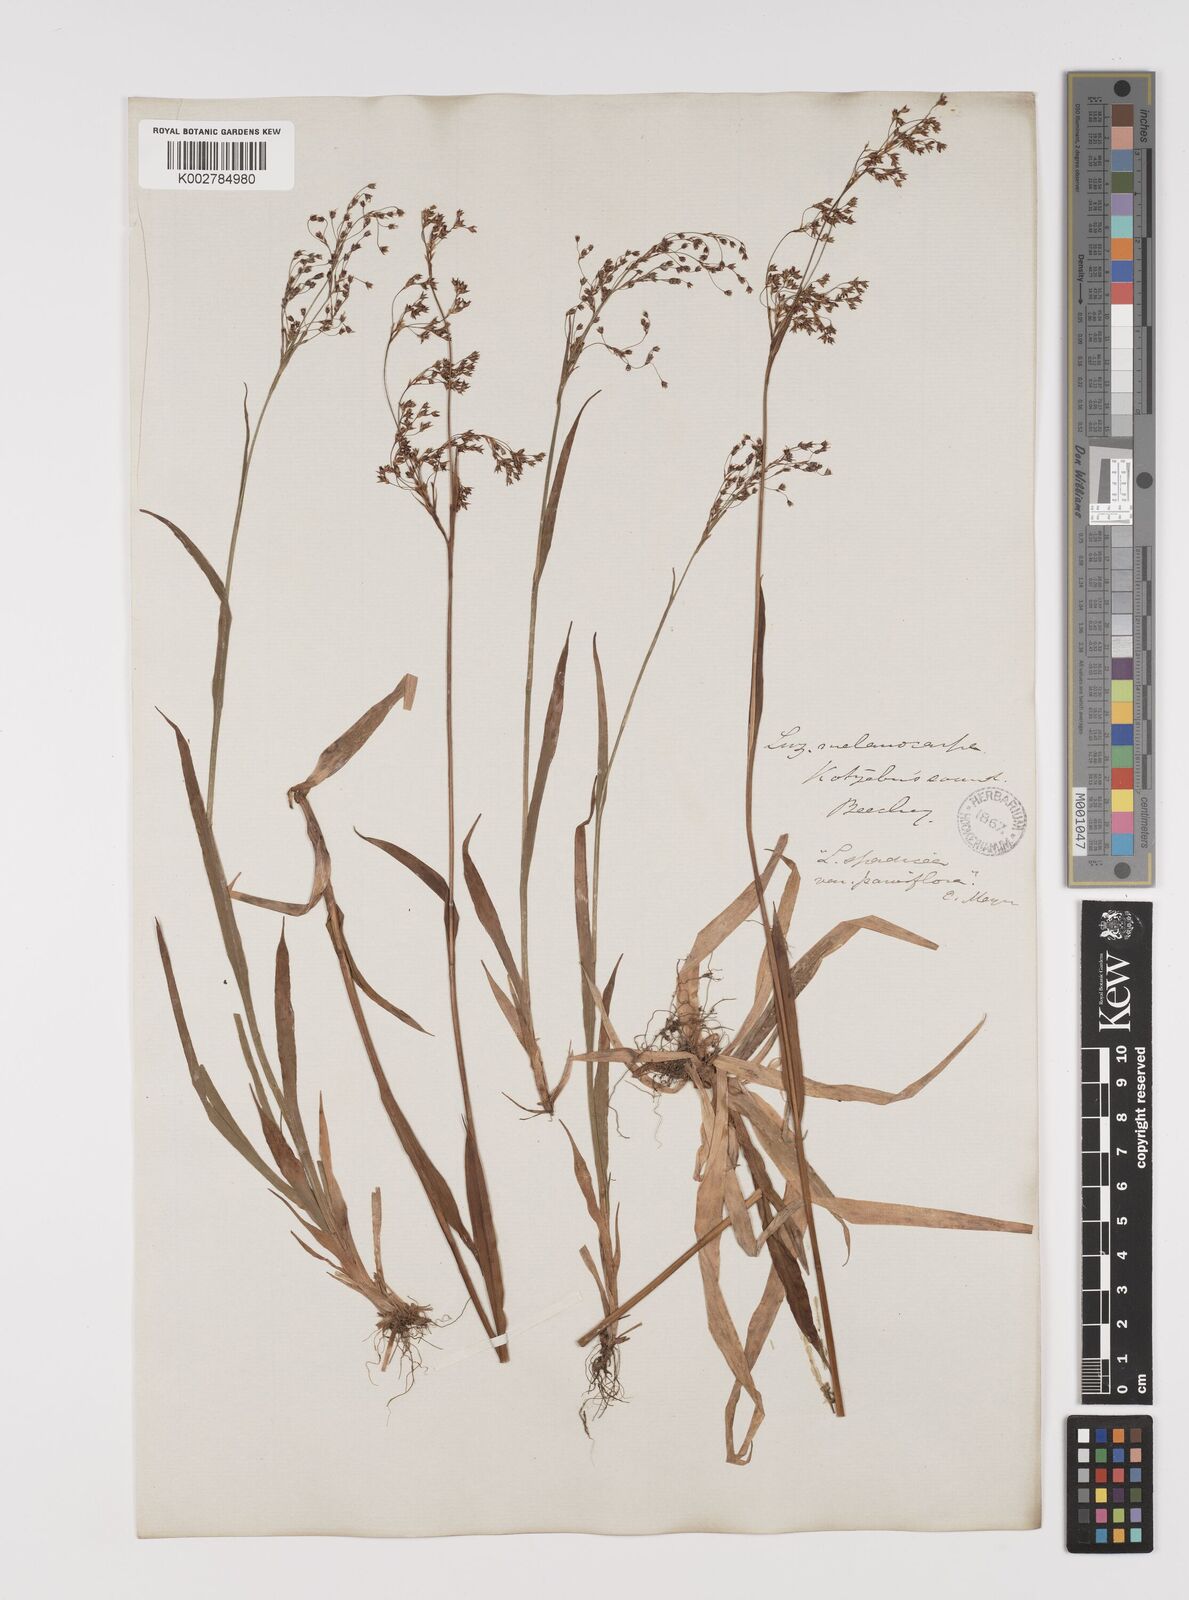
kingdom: Plantae
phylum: Tracheophyta
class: Liliopsida
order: Poales
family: Juncaceae
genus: Luzula
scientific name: Luzula parviflora
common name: Millet woodrush
